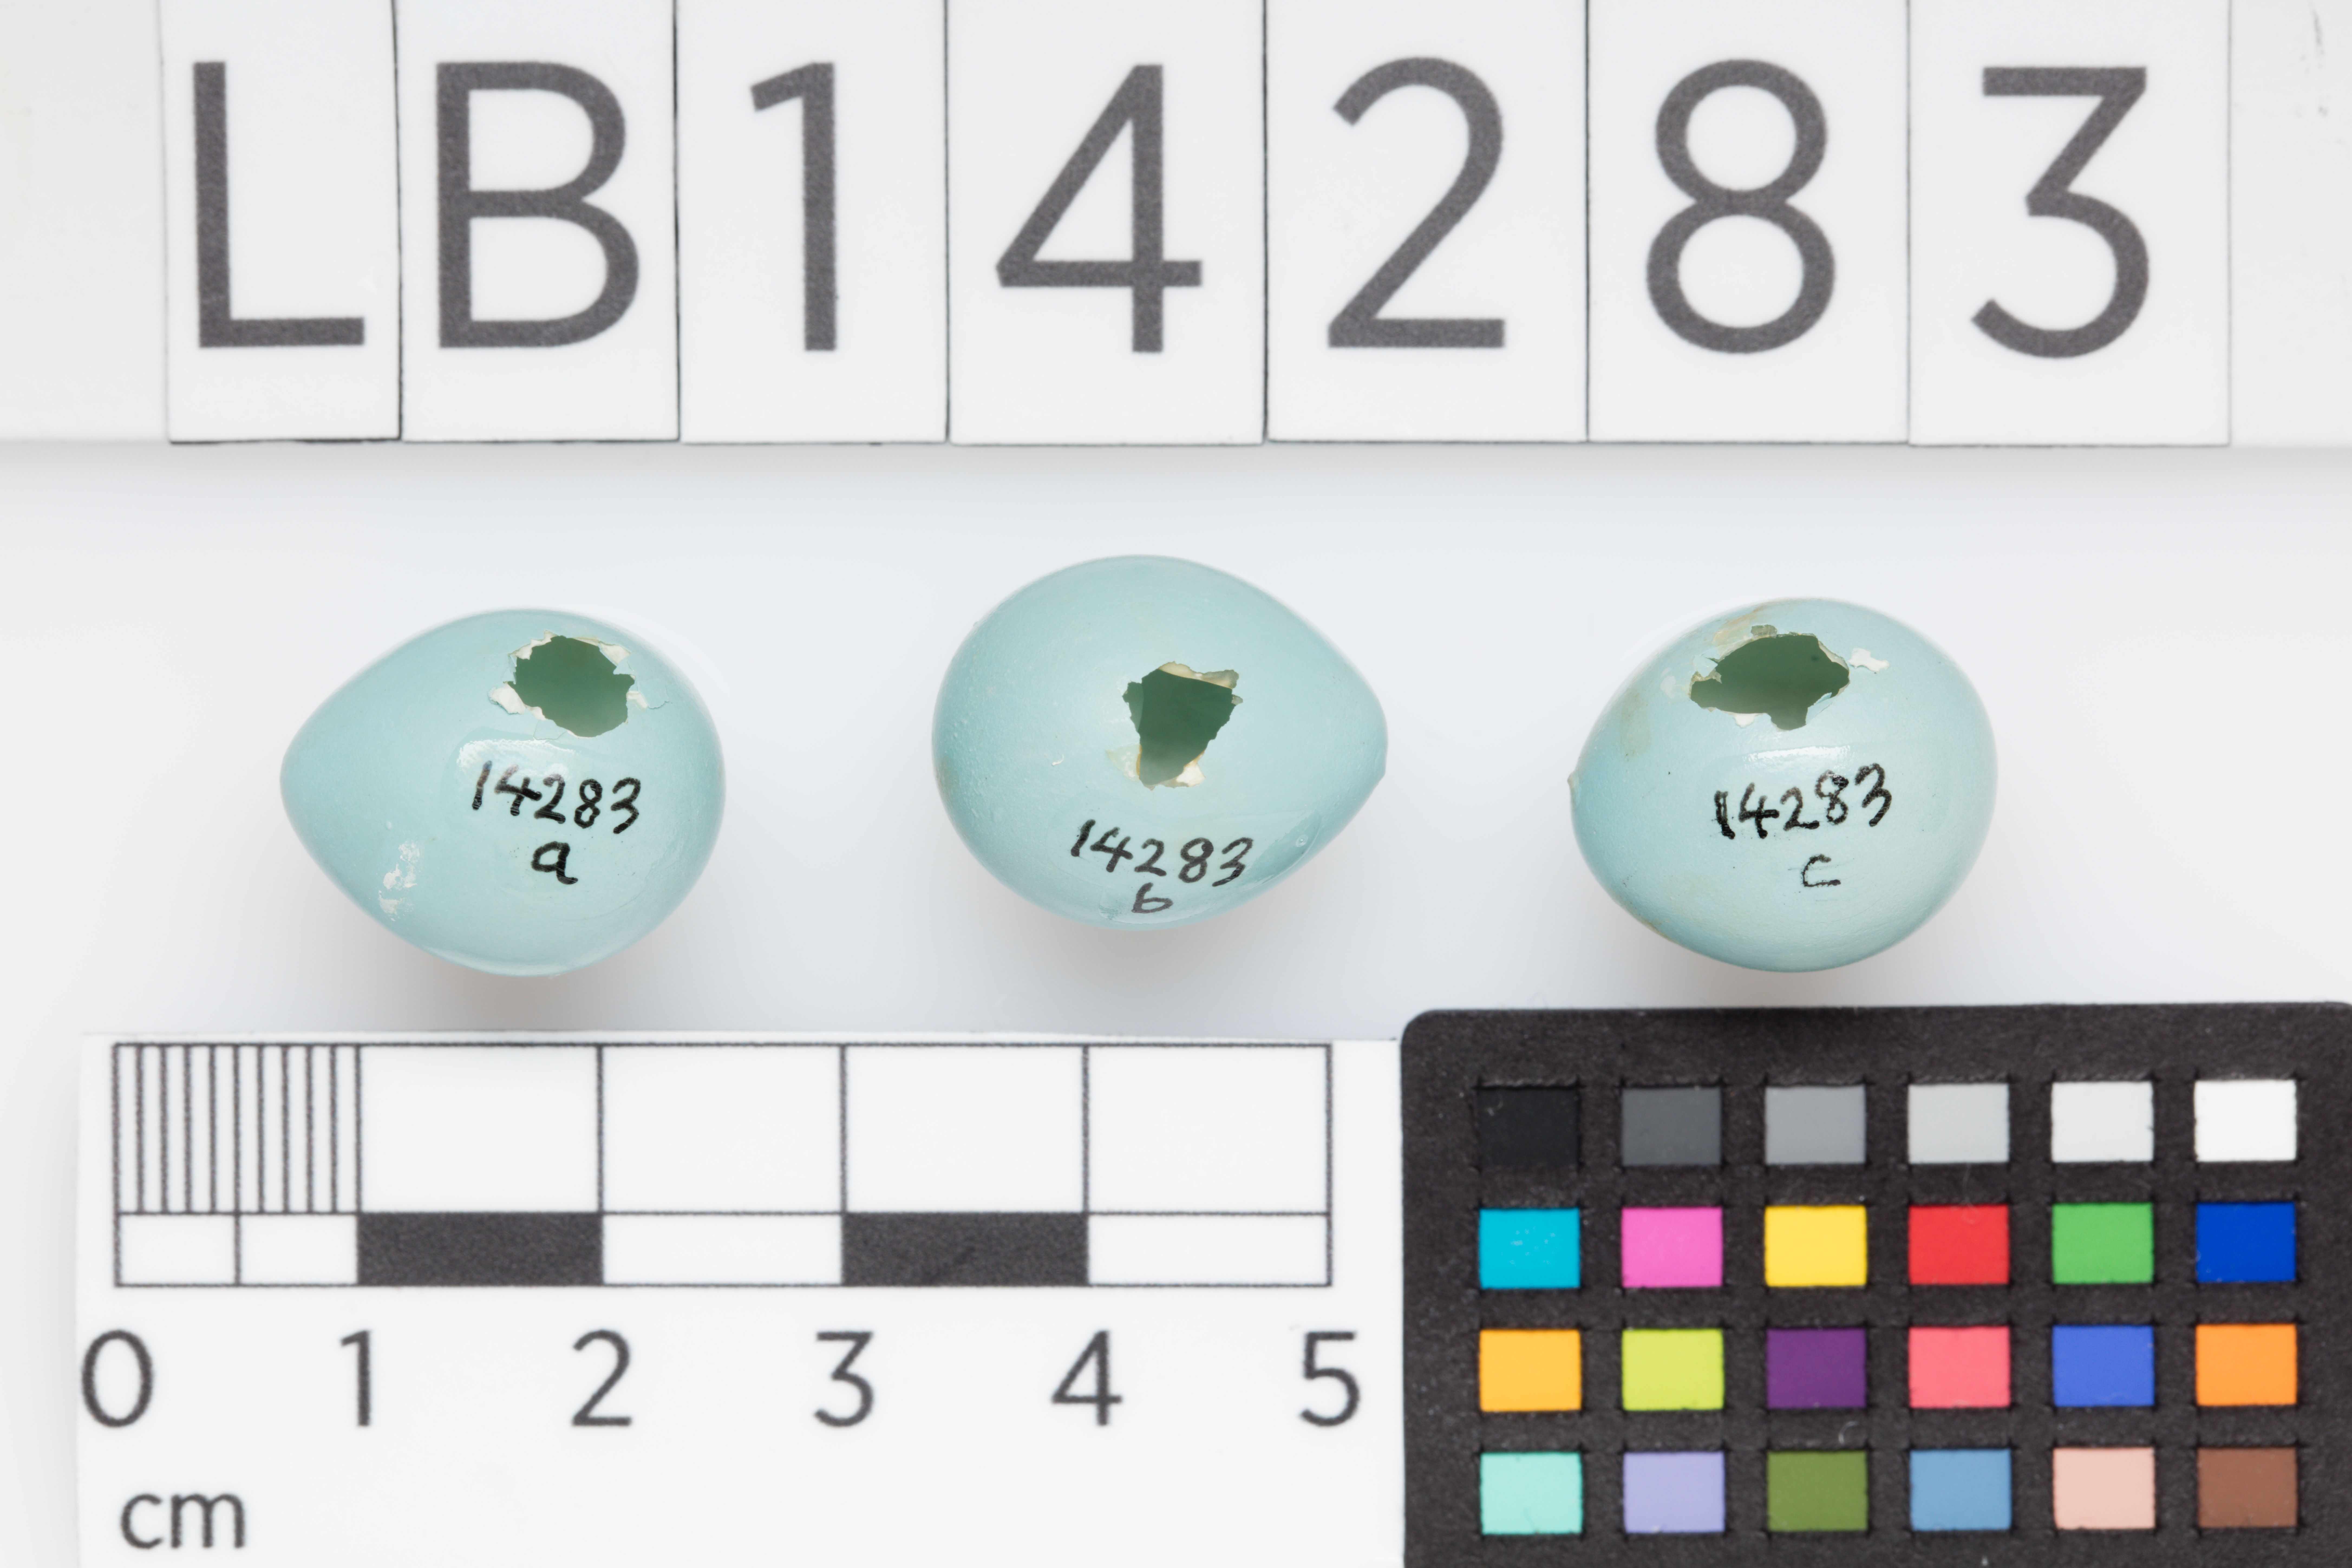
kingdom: Animalia
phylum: Chordata
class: Aves
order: Passeriformes
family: Prunellidae
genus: Prunella
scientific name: Prunella modularis
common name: Dunnock
